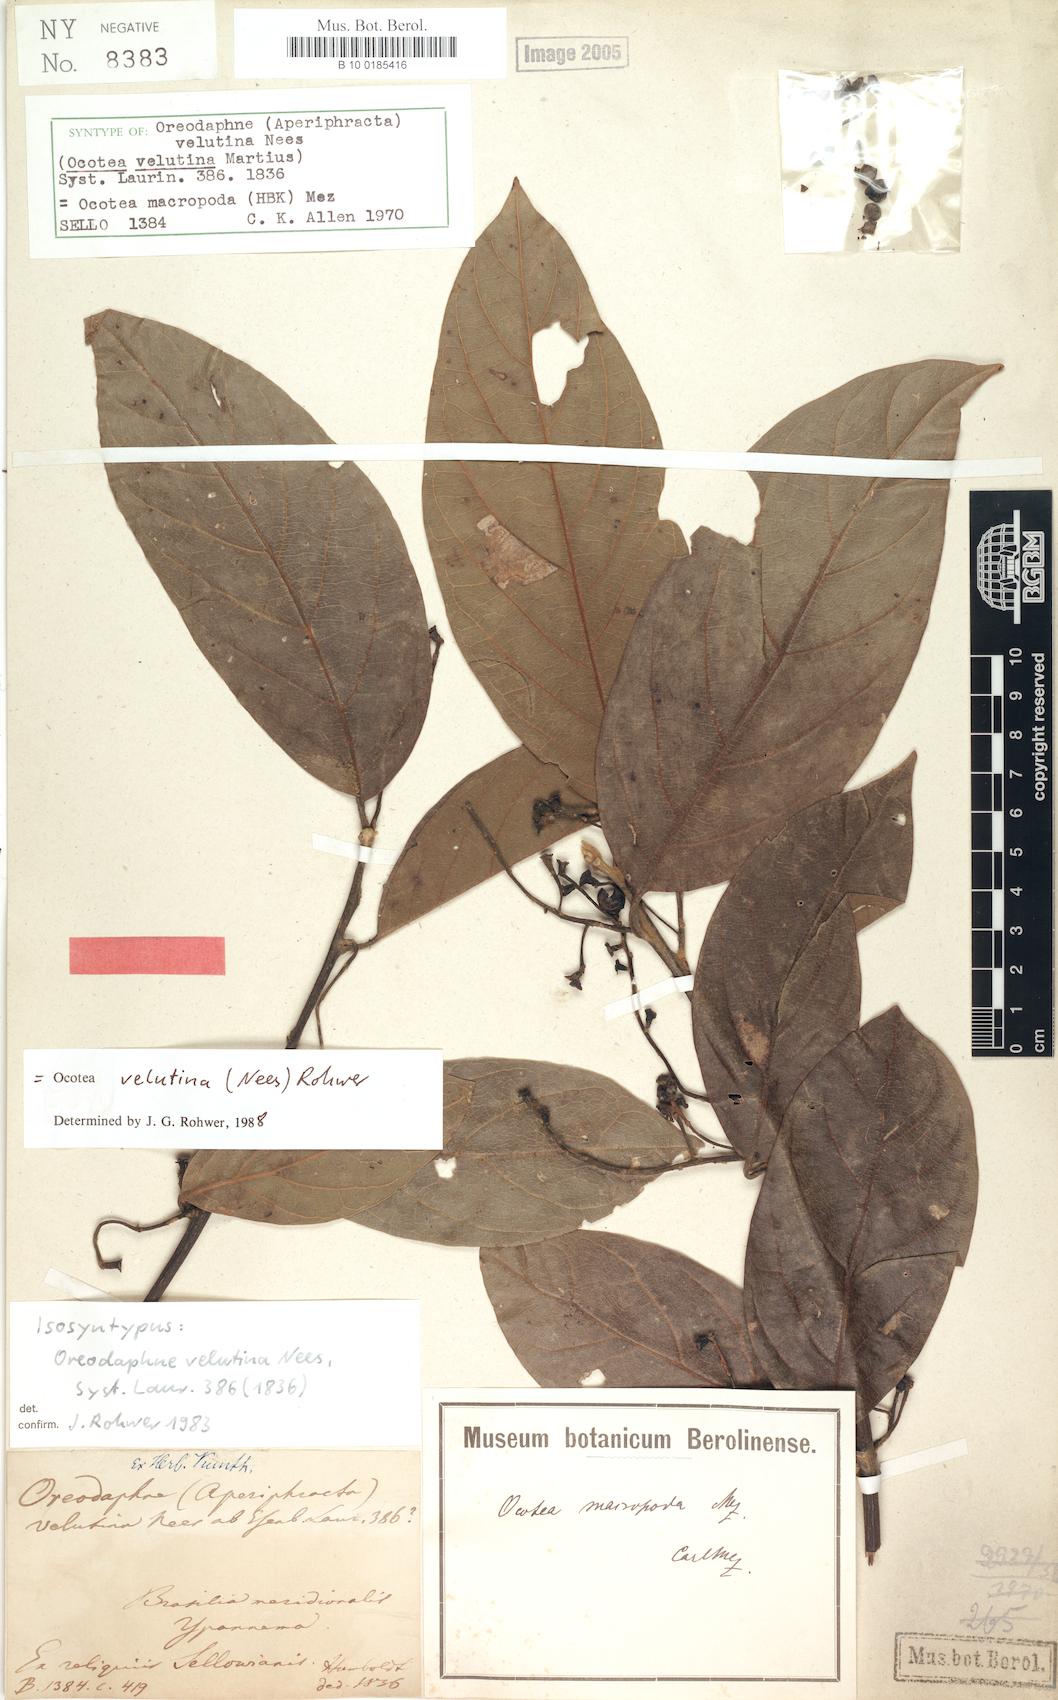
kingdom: Plantae
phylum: Tracheophyta
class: Magnoliopsida
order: Laurales
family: Lauraceae
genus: Andea
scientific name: Andea velutina
